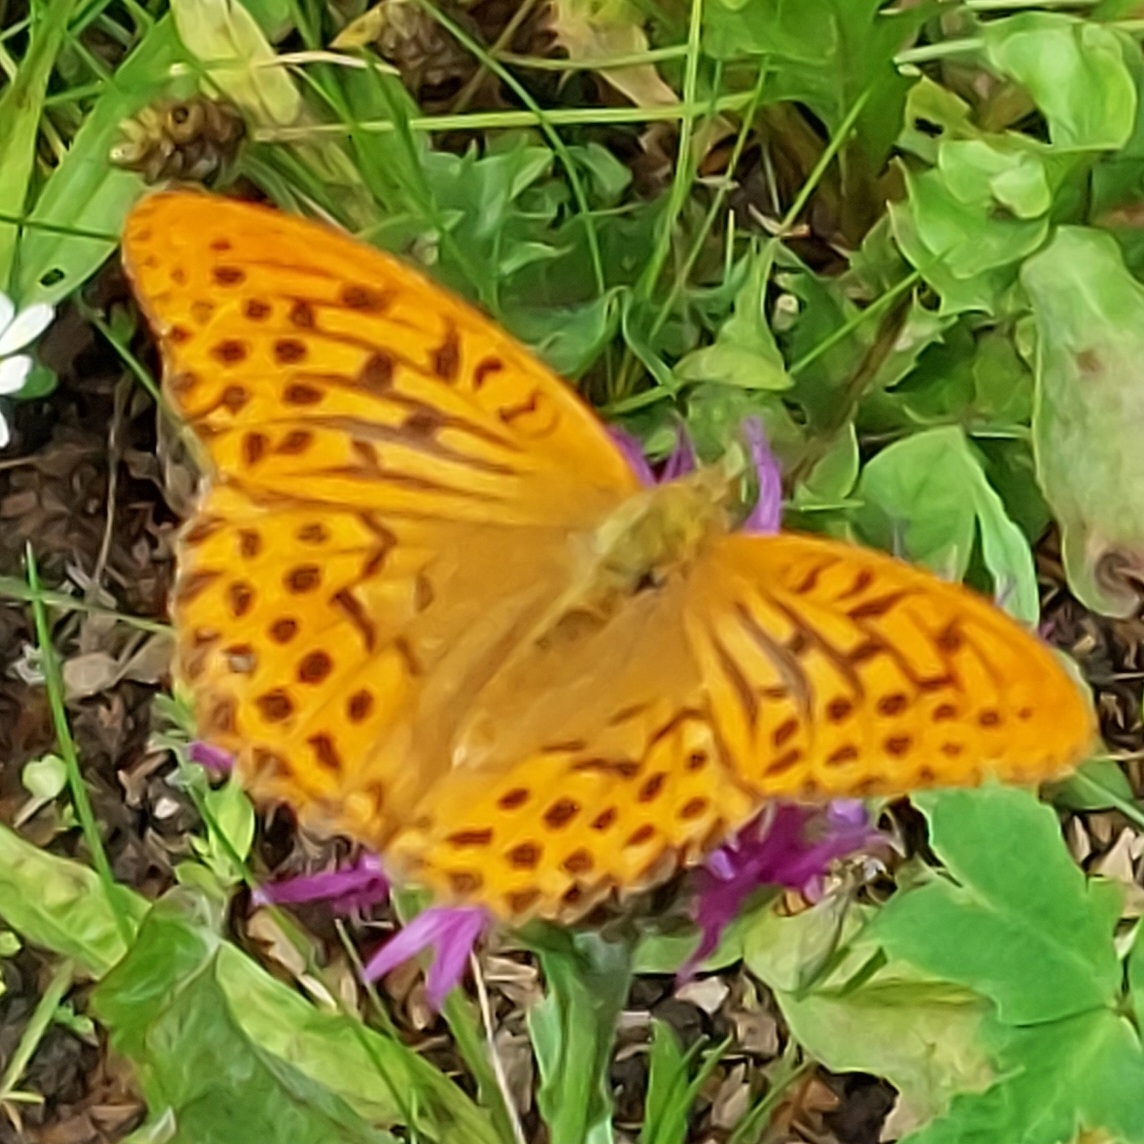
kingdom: Animalia
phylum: Arthropoda
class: Insecta
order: Lepidoptera
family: Nymphalidae
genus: Argynnis
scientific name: Argynnis paphia
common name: Kejserkåbe
